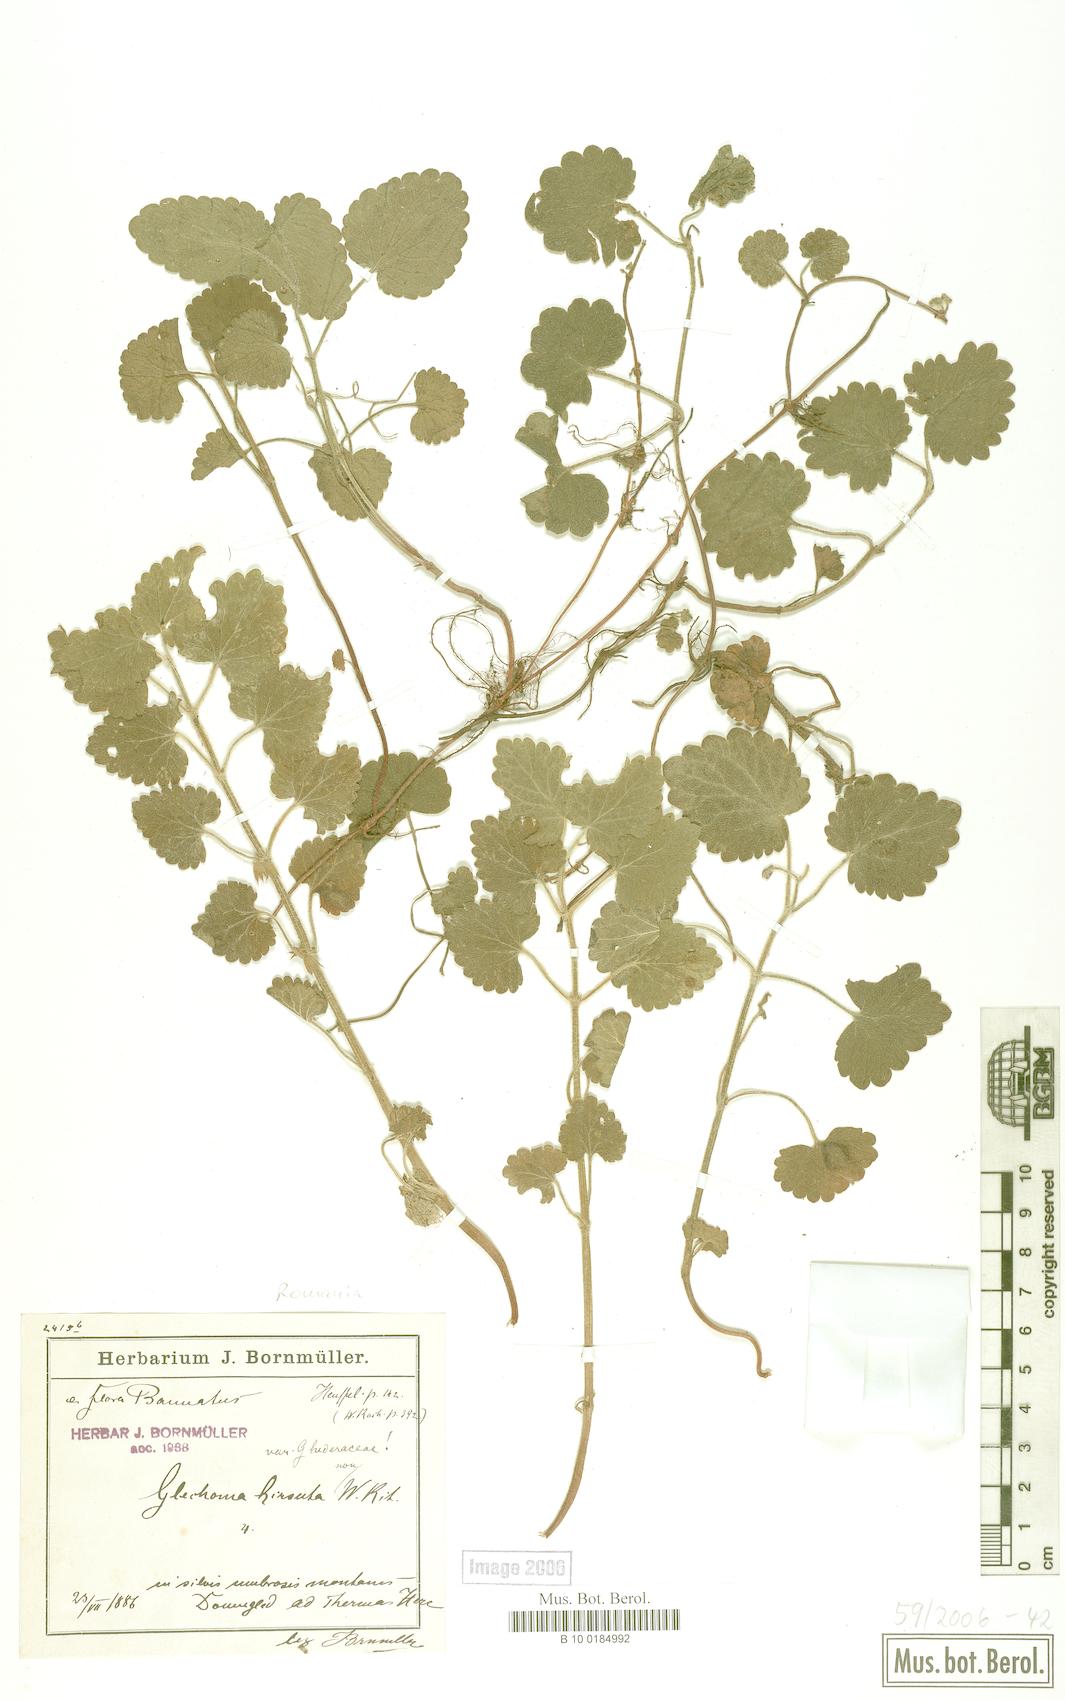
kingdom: Plantae
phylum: Tracheophyta
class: Magnoliopsida
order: Lamiales
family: Lamiaceae
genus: Glechoma
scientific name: Glechoma hirsuta
